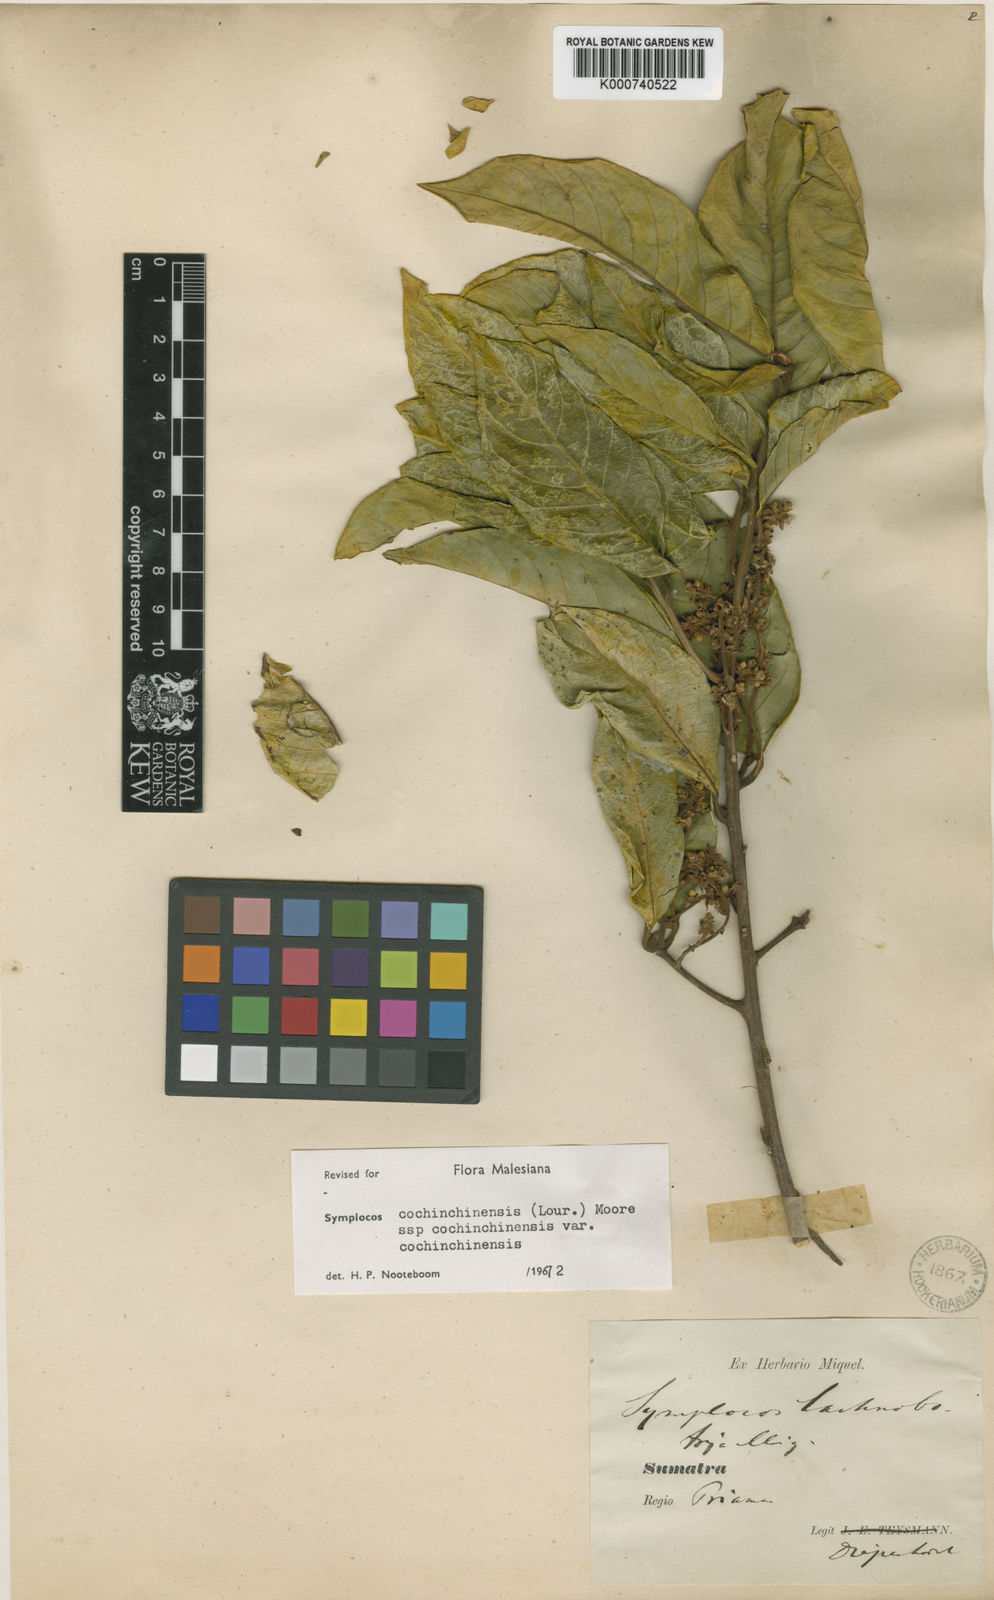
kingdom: Plantae
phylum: Tracheophyta
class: Magnoliopsida
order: Ericales
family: Symplocaceae
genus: Symplocos
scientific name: Symplocos cochinchinensis
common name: Buff hazelwood
